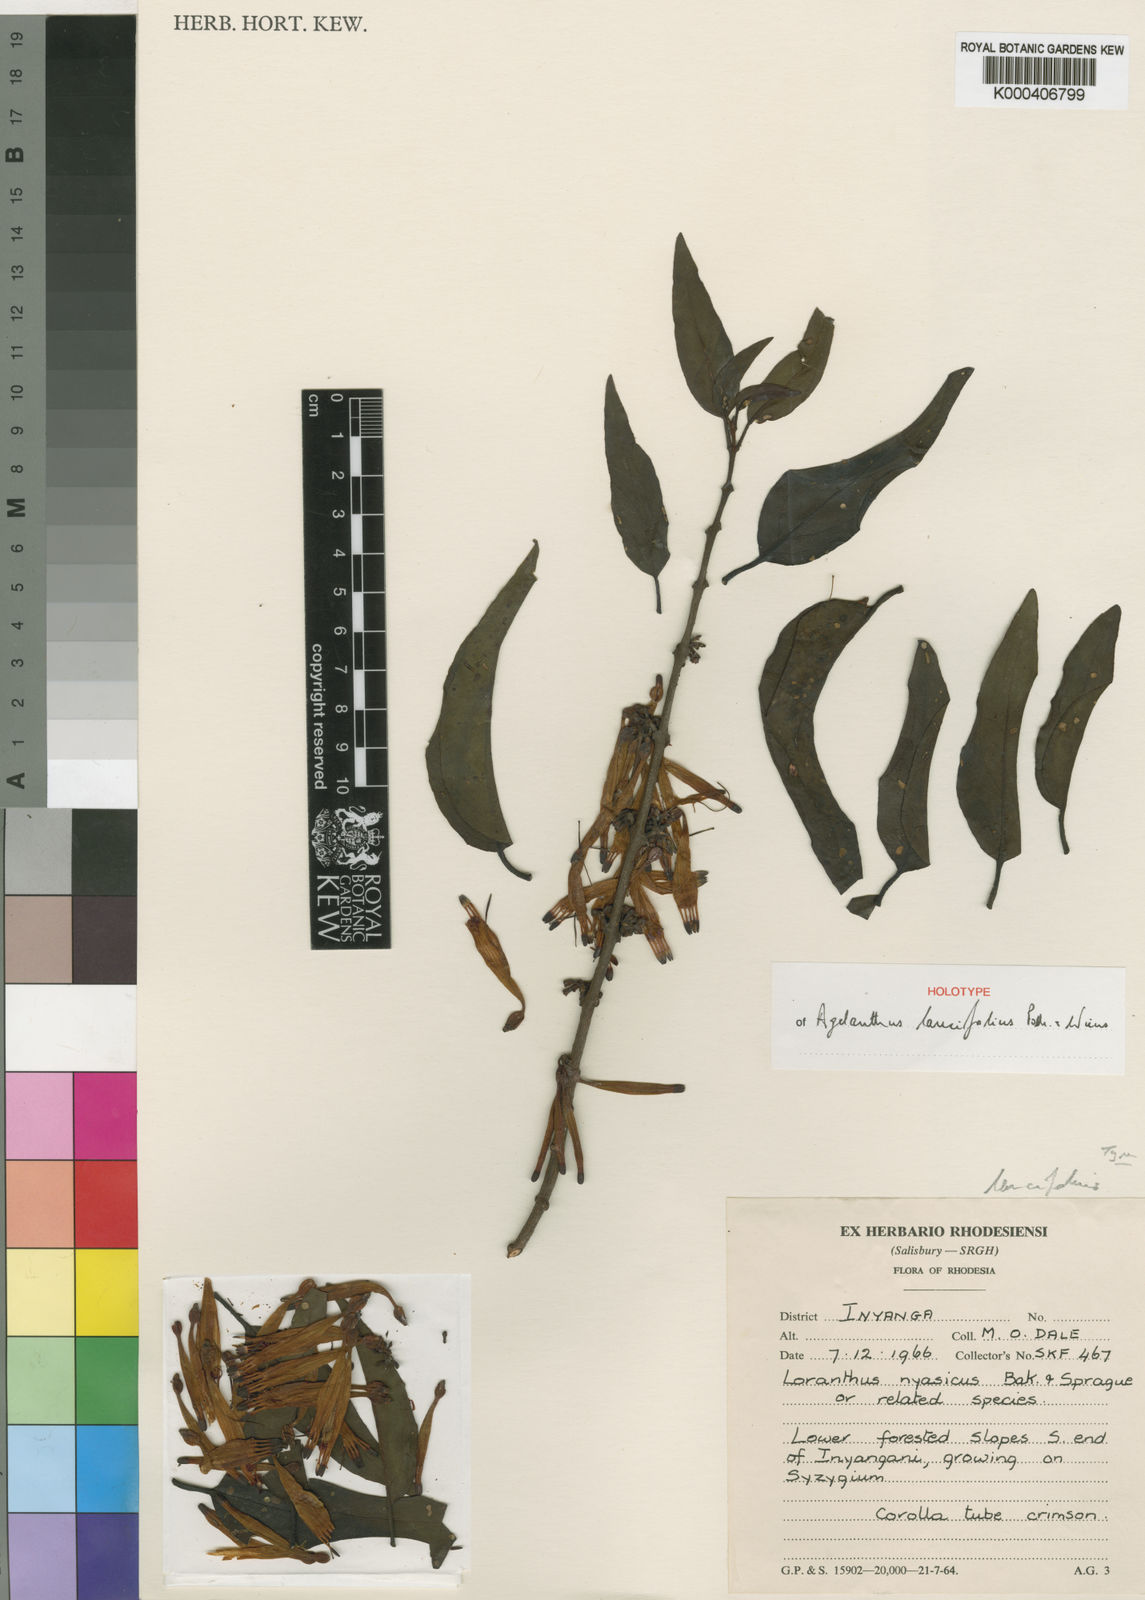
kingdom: Plantae
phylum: Tracheophyta
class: Magnoliopsida
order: Santalales
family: Loranthaceae
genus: Agelanthus
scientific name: Agelanthus lancifolius
